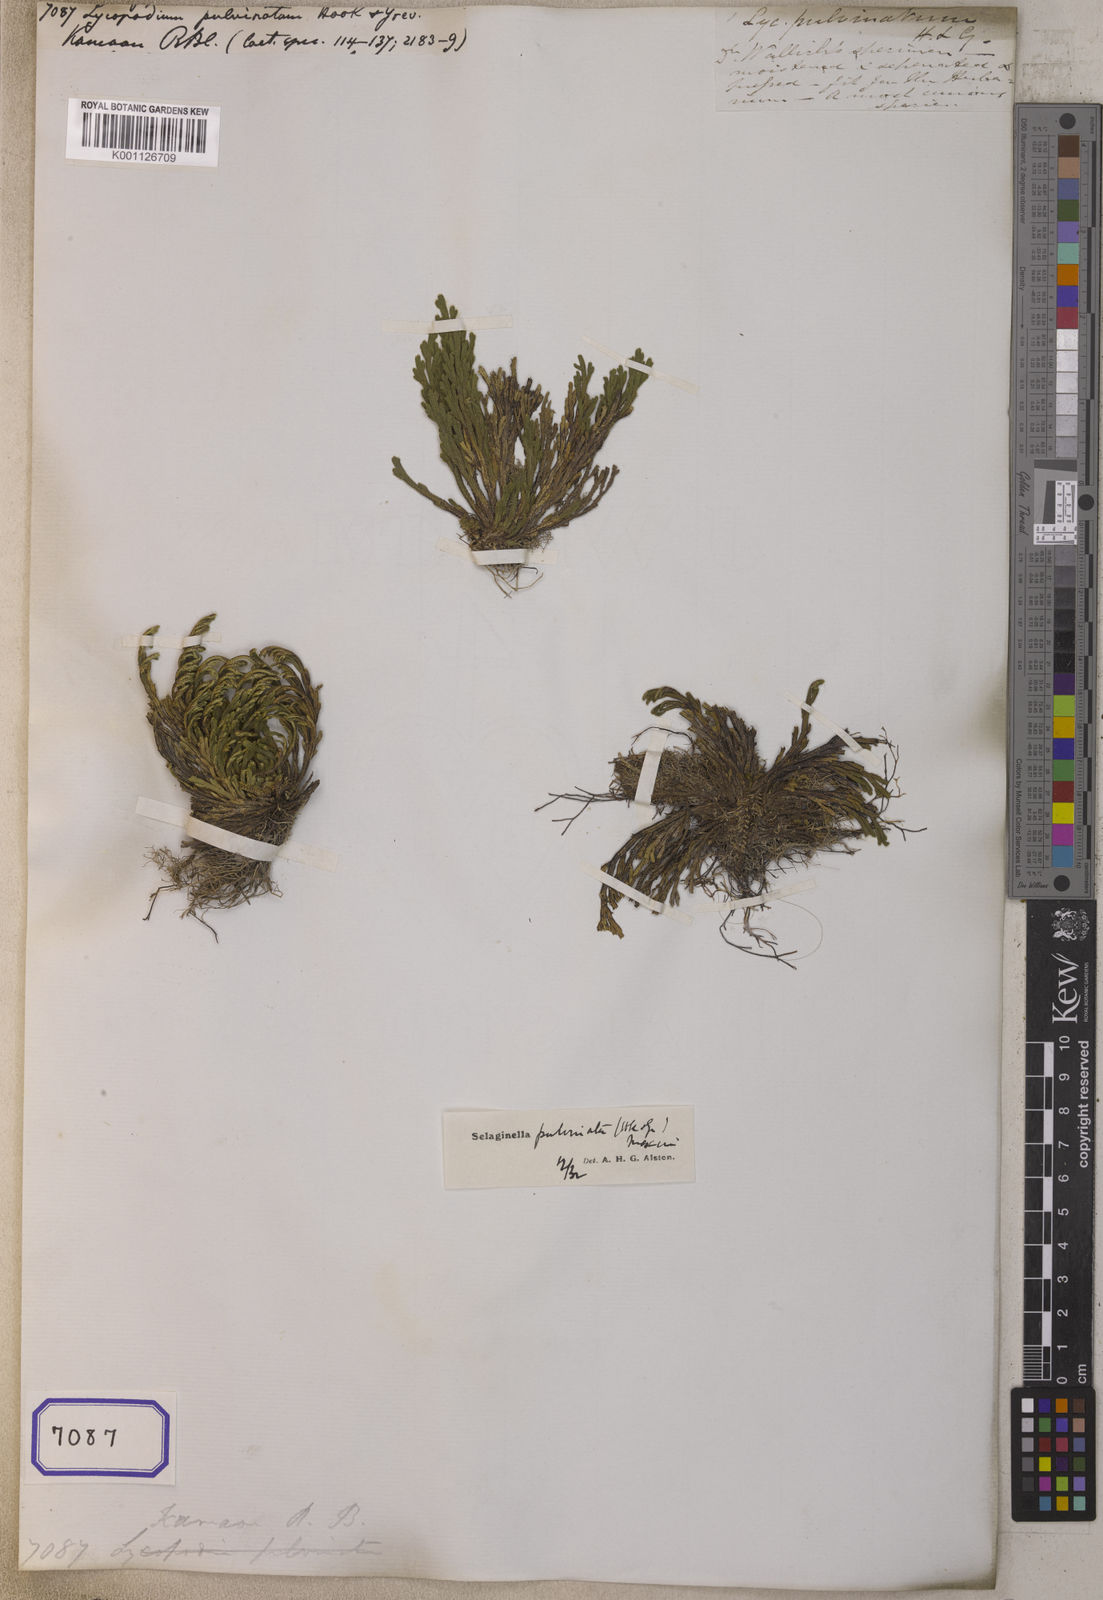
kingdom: Plantae
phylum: Tracheophyta
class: Lycopodiopsida
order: Selaginellales
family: Selaginellaceae
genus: Selaginella
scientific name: Selaginella pulvinata
